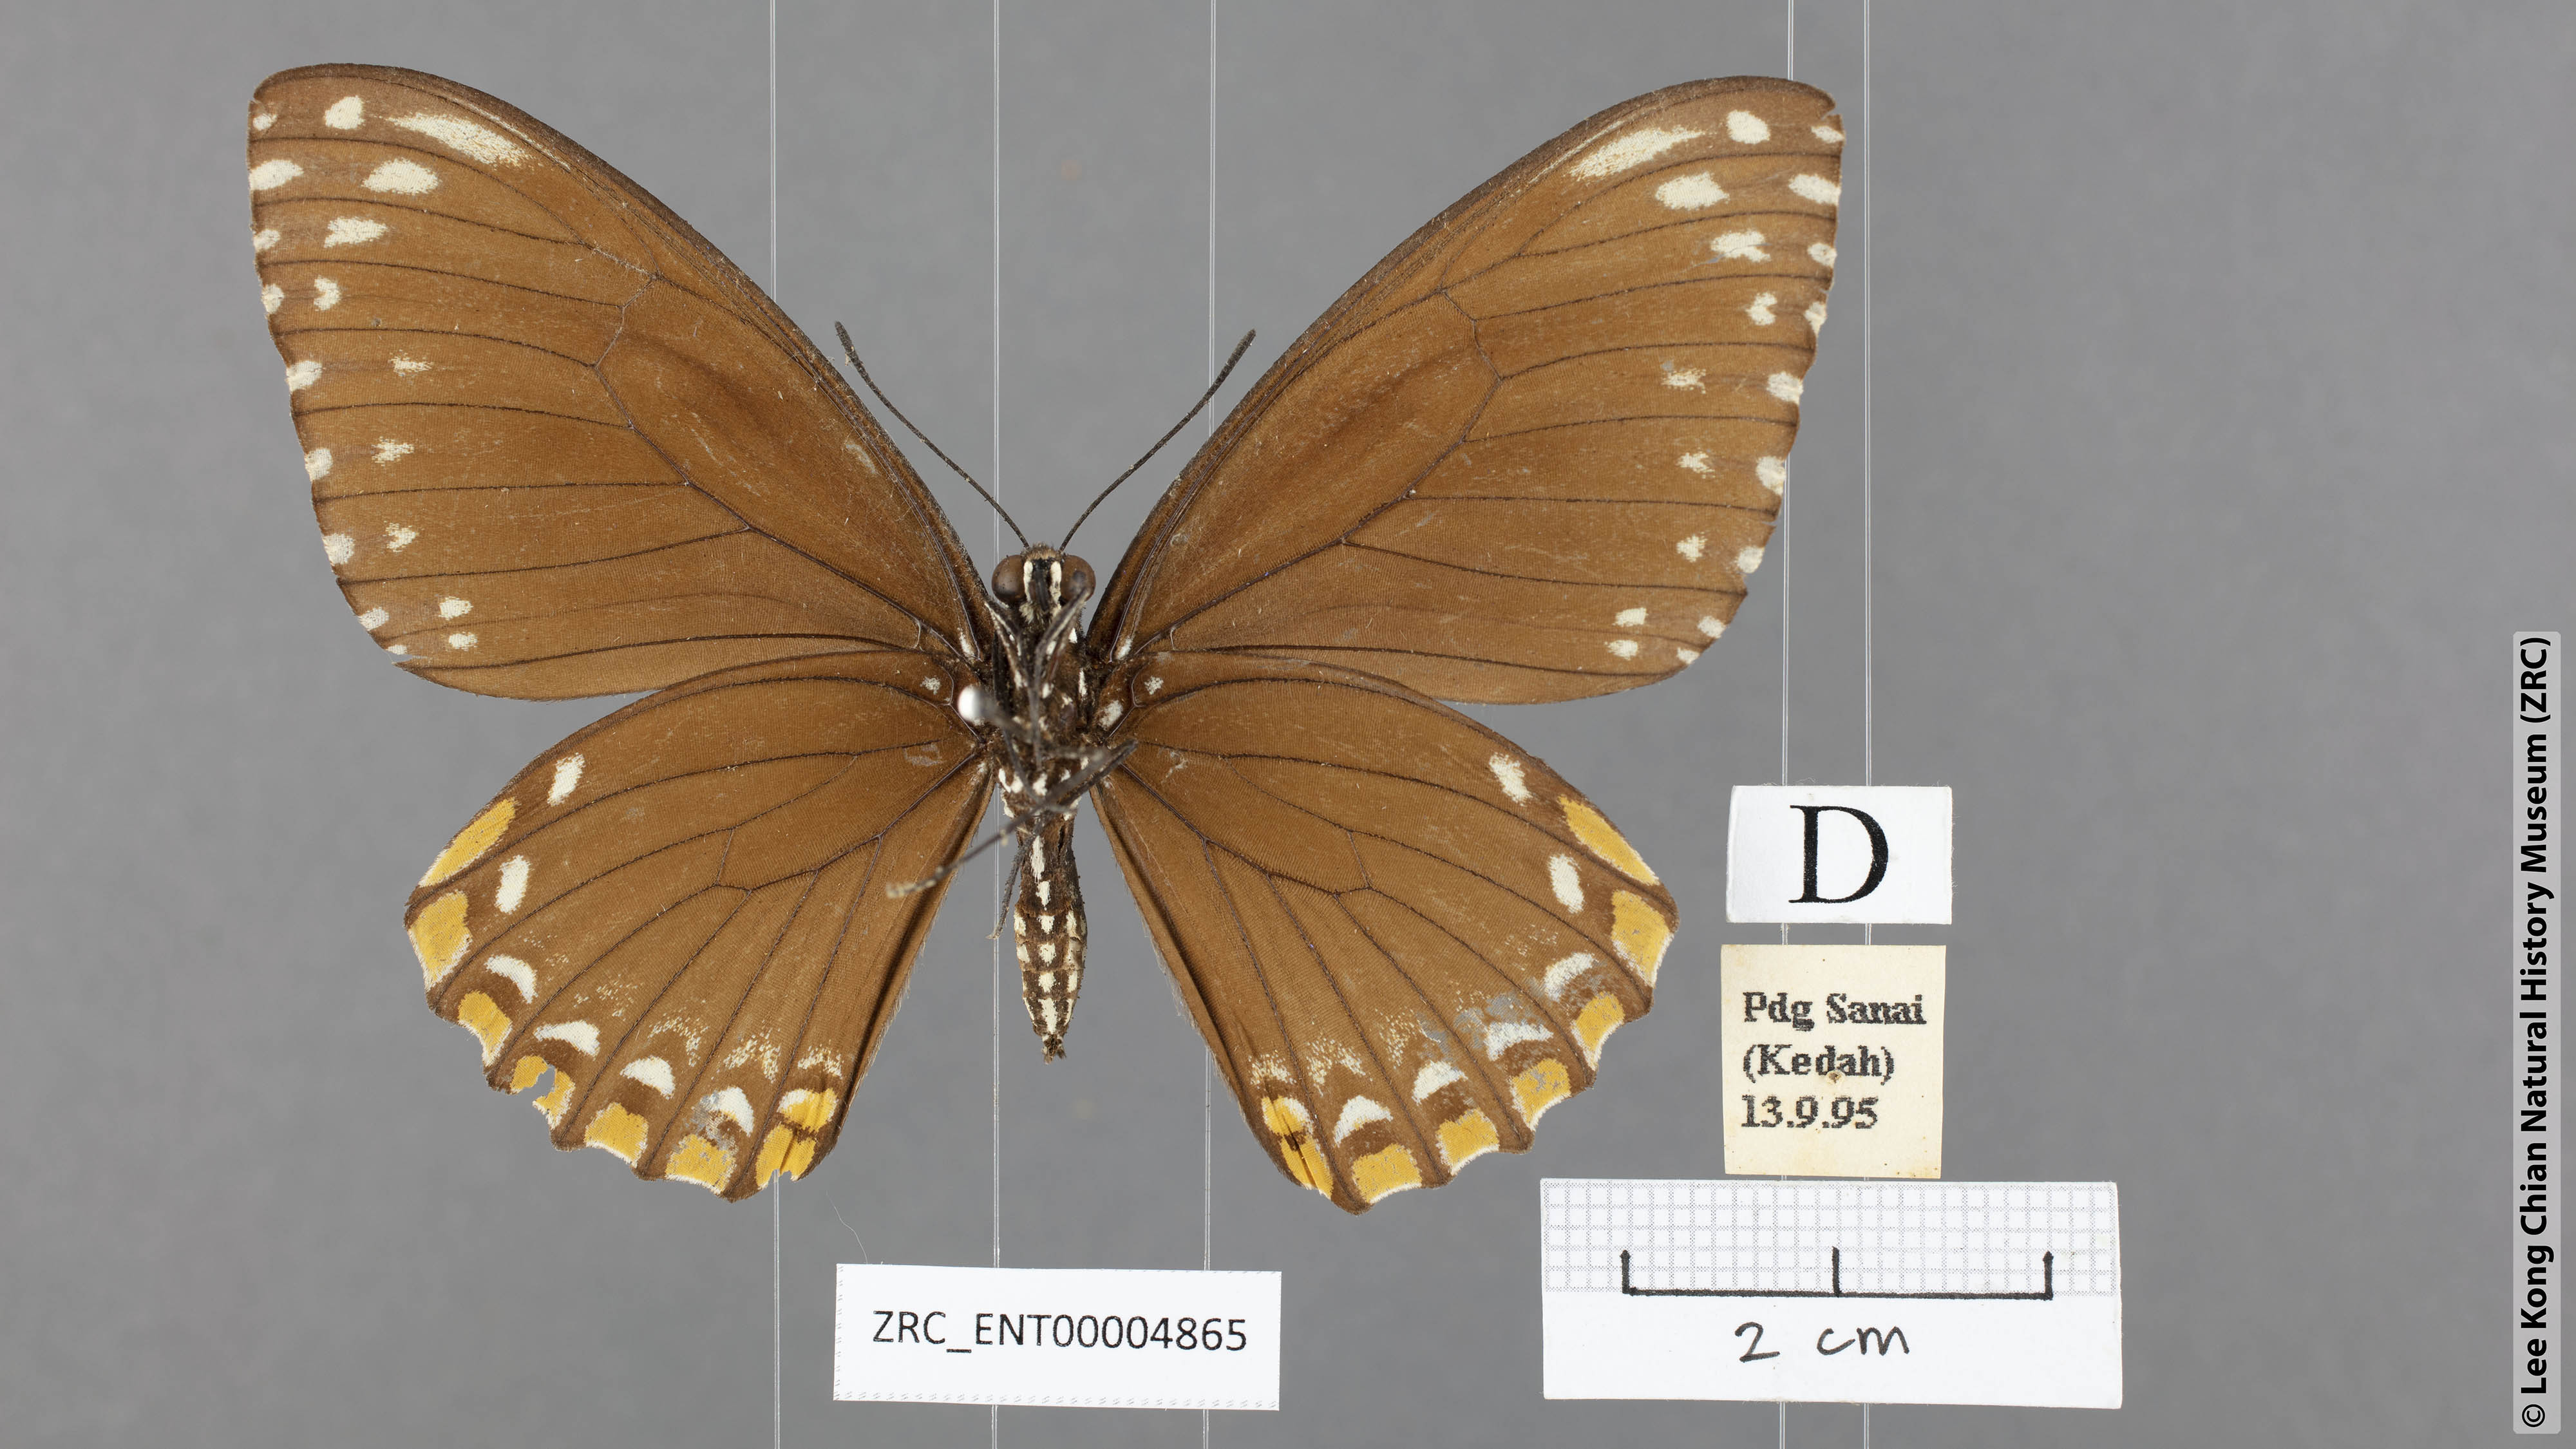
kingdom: Animalia
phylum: Arthropoda
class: Insecta
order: Lepidoptera
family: Papilionidae
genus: Chilasa
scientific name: Chilasa clytia
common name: Common mime
